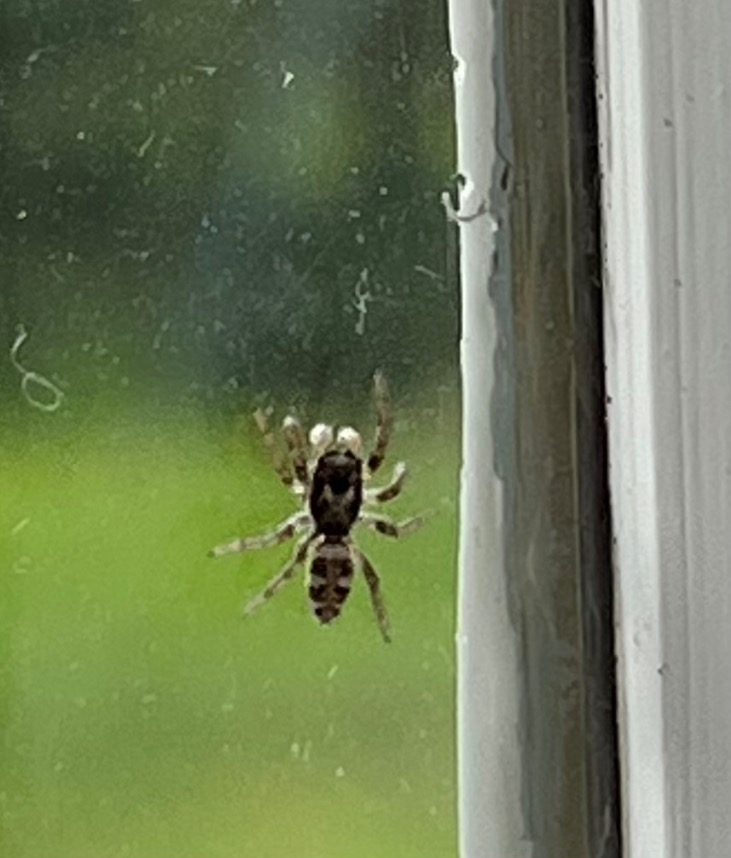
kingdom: Animalia
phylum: Arthropoda
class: Arachnida
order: Araneae
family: Salticidae
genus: Salticus
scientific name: Salticus scenicus
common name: Almindelig zebraedderkop
